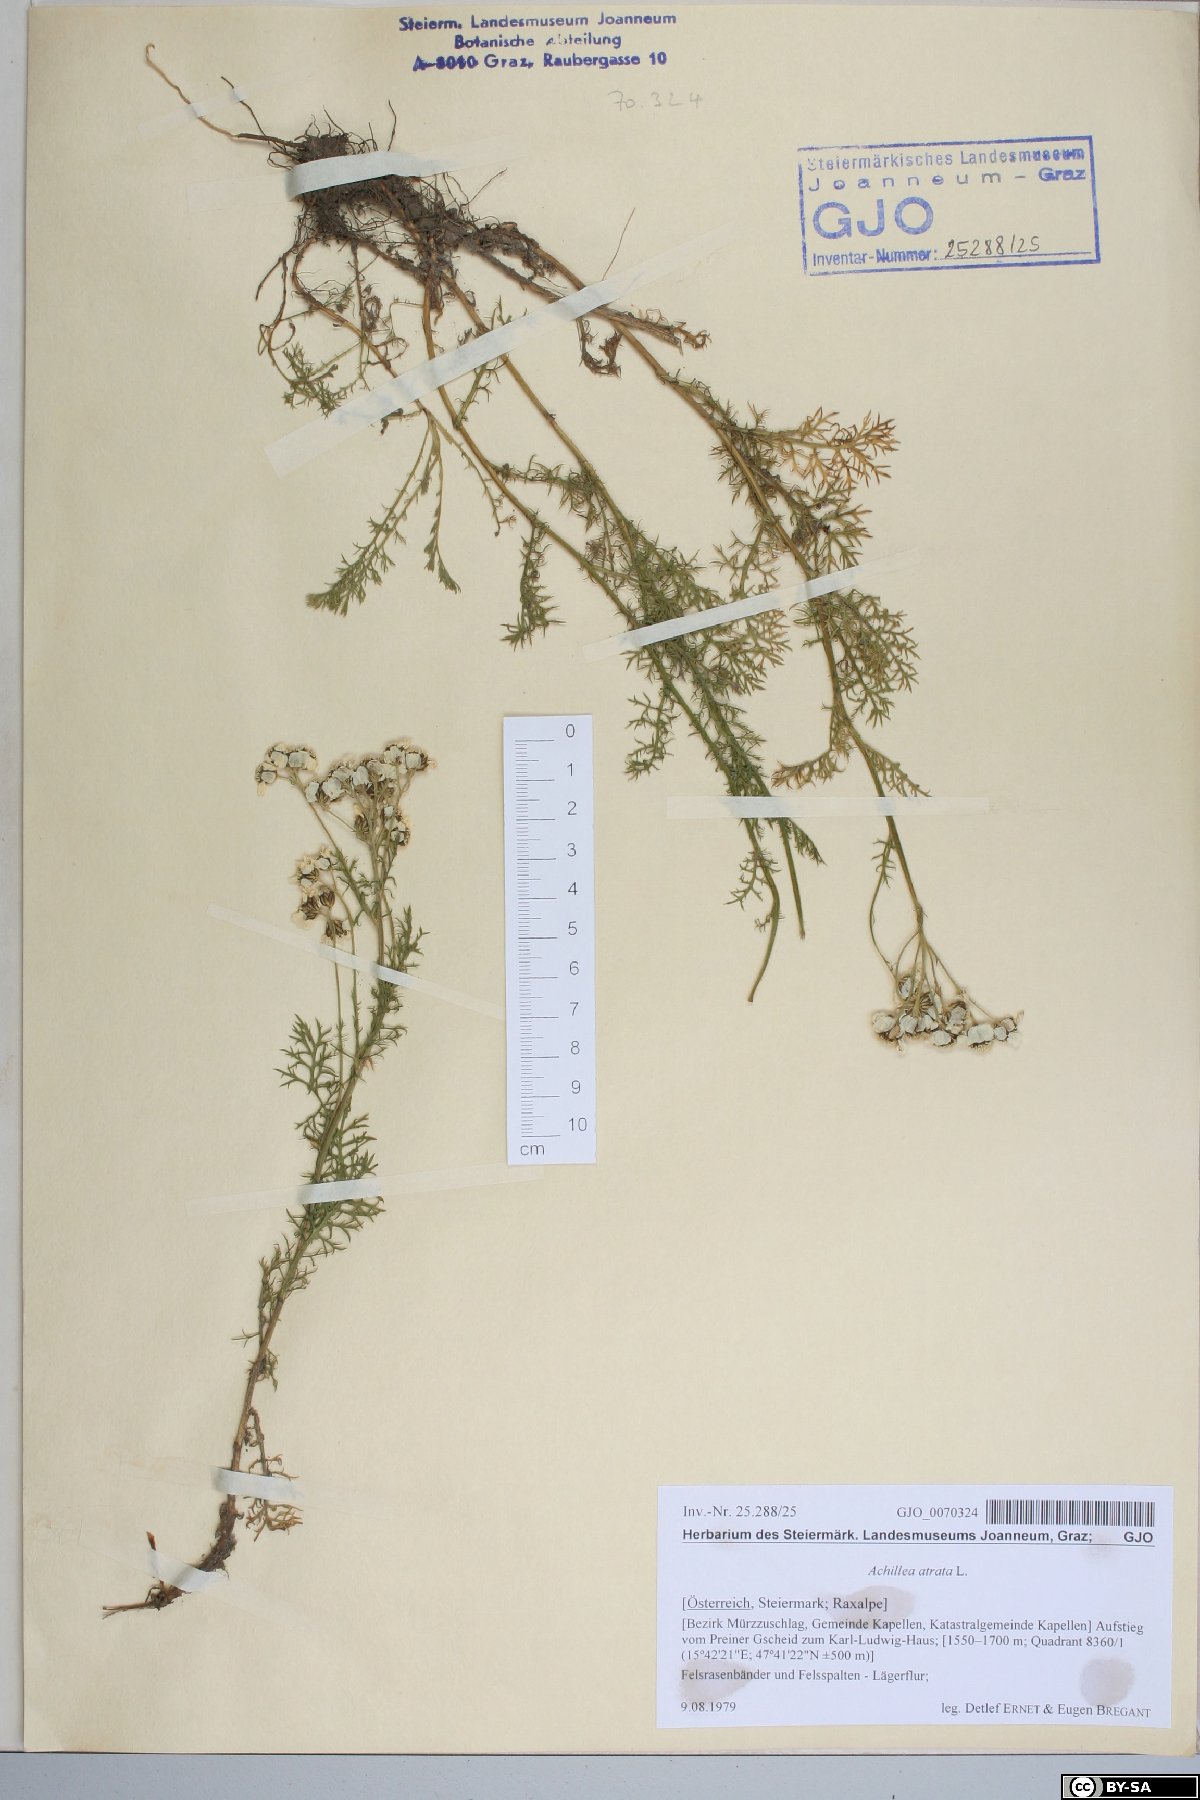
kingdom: Plantae
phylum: Tracheophyta
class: Magnoliopsida
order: Asterales
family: Asteraceae
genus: Achillea
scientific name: Achillea atrata
